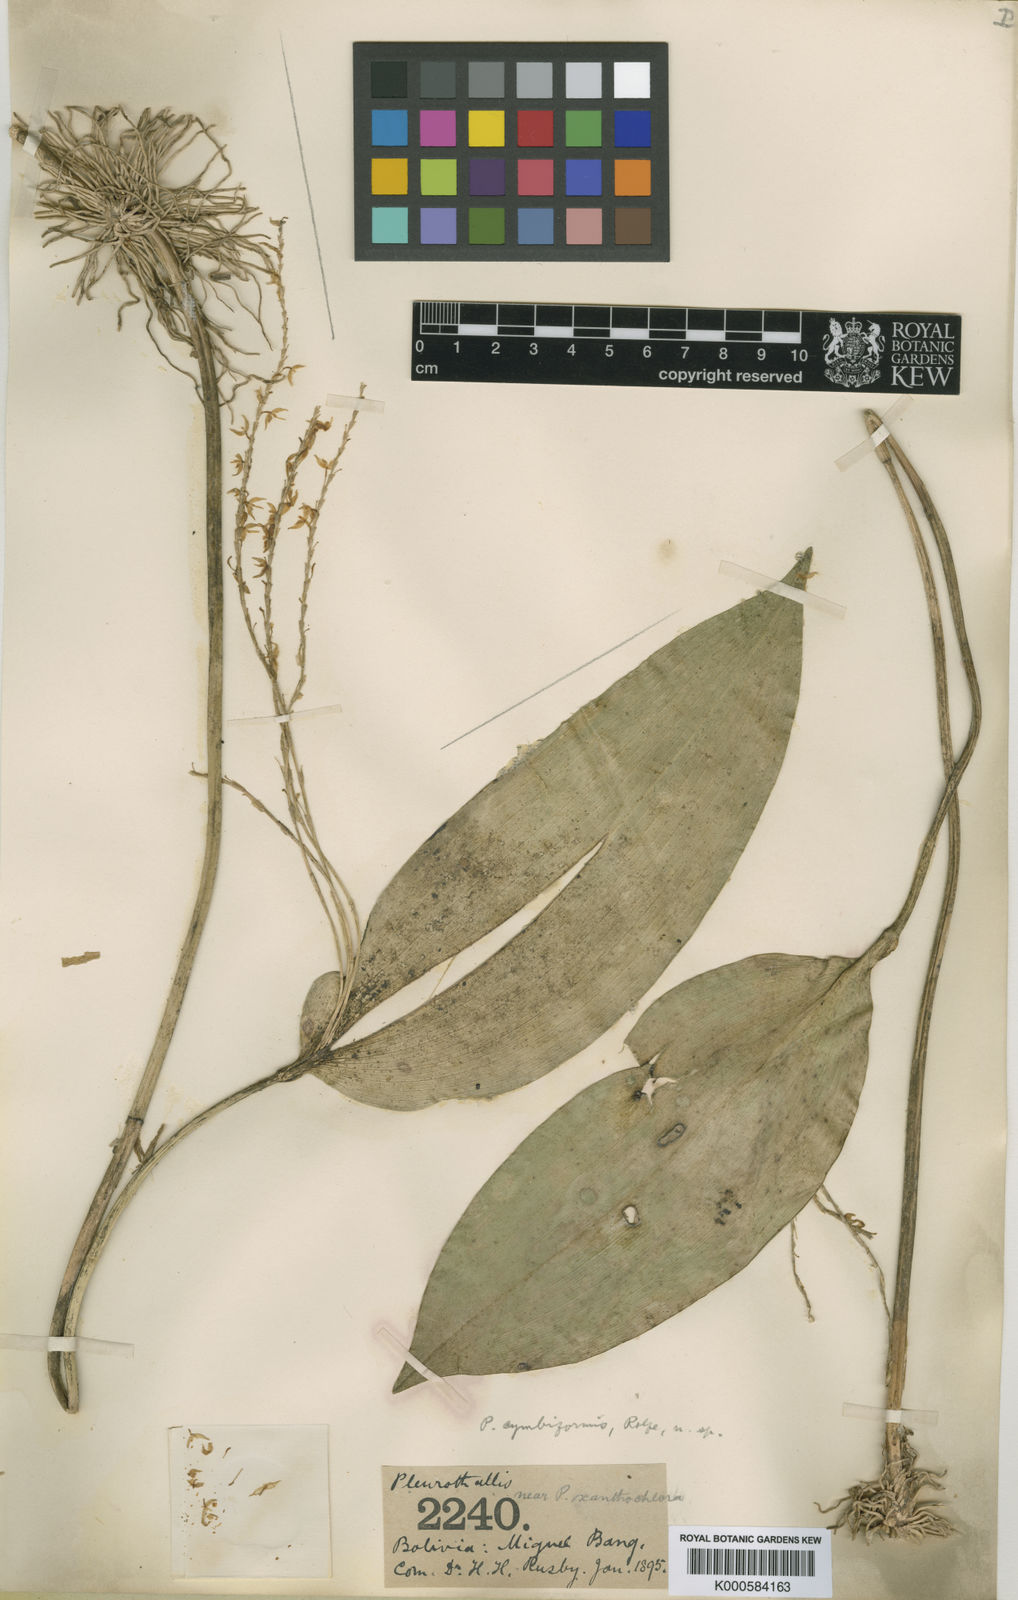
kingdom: Plantae
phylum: Tracheophyta
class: Liliopsida
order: Asparagales
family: Orchidaceae
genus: Pleurothallis
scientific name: Pleurothallis cymbiformis
